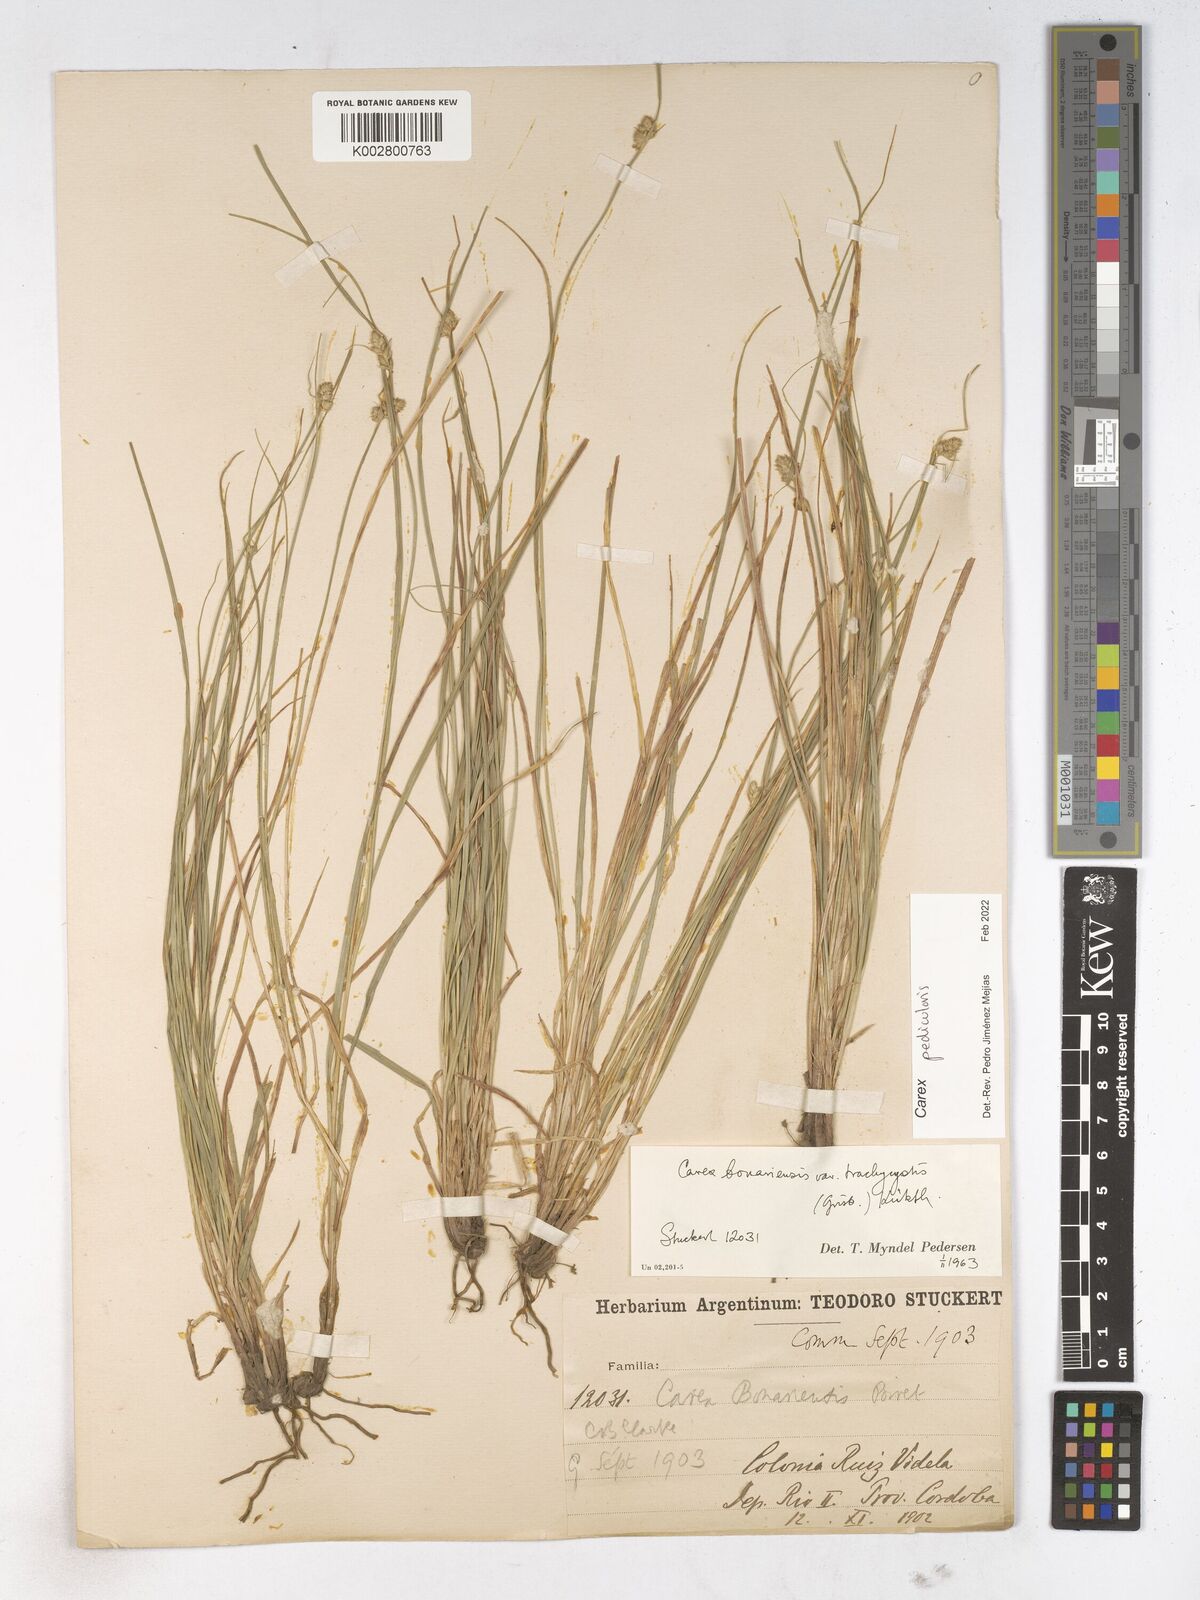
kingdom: Plantae
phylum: Tracheophyta
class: Liliopsida
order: Poales
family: Cyperaceae
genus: Carex
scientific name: Carex bonariensis
